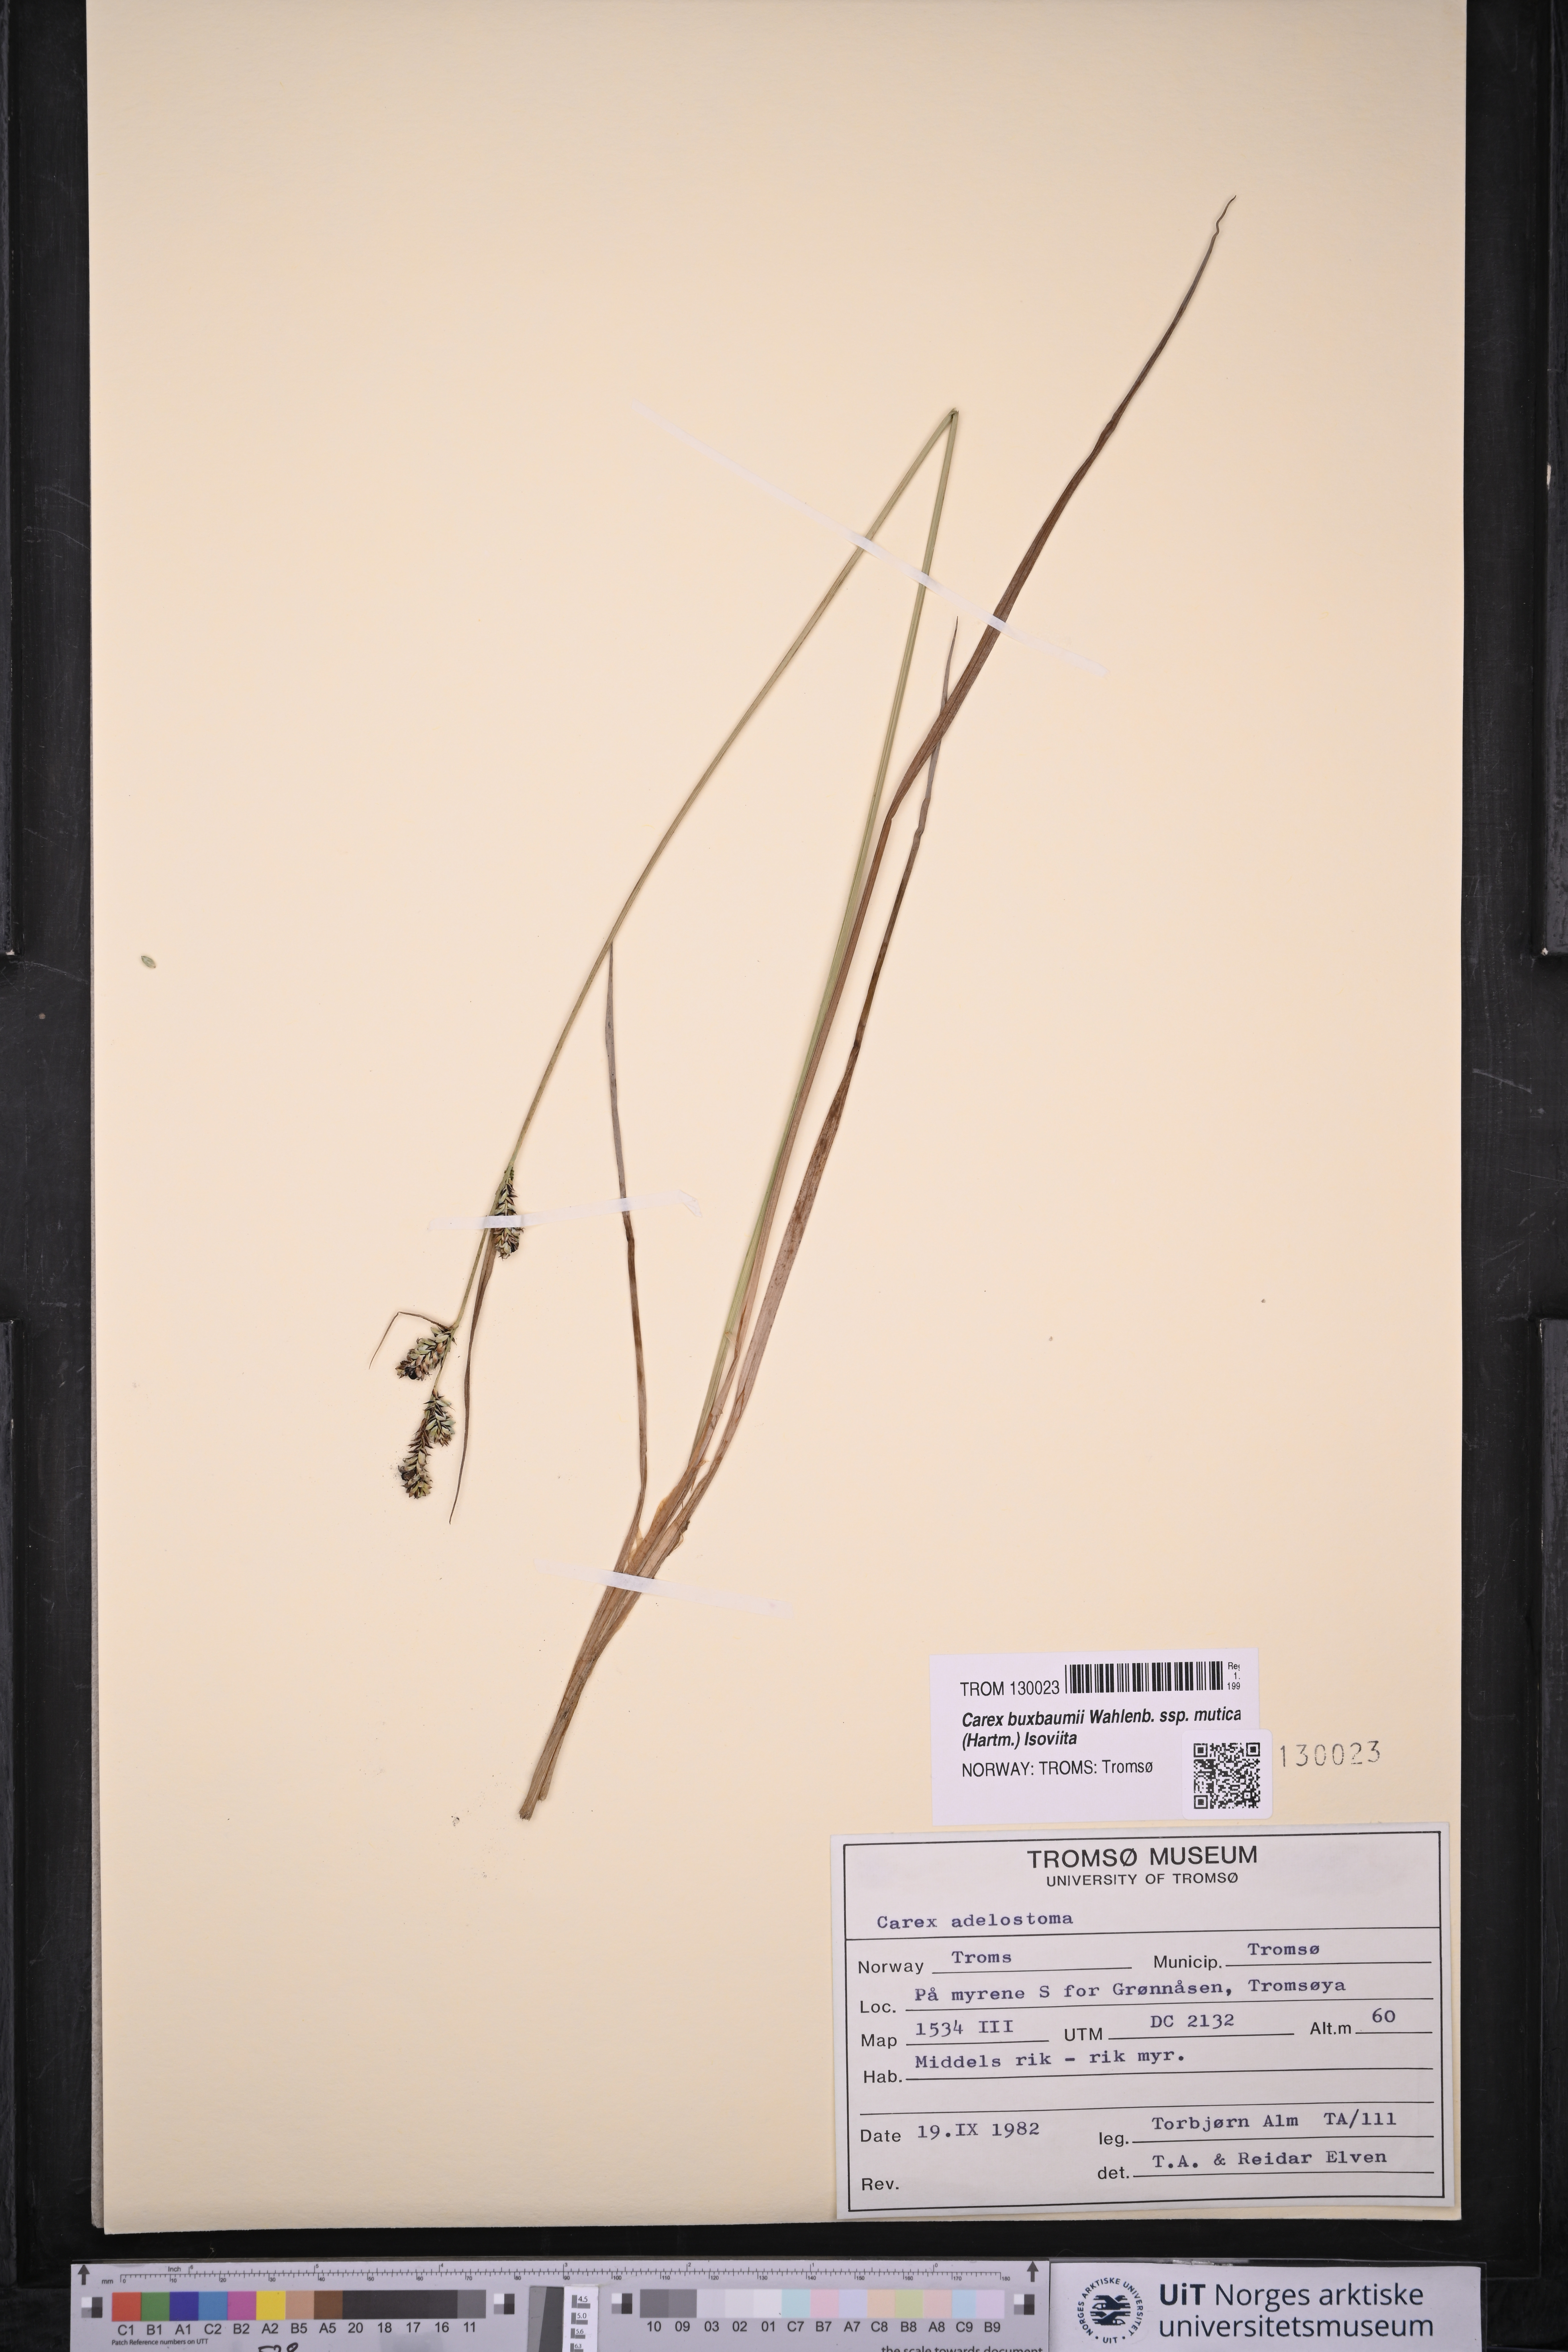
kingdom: Plantae
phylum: Tracheophyta
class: Liliopsida
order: Poales
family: Cyperaceae
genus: Carex
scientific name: Carex adelostoma
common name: Circumpolar sedge
